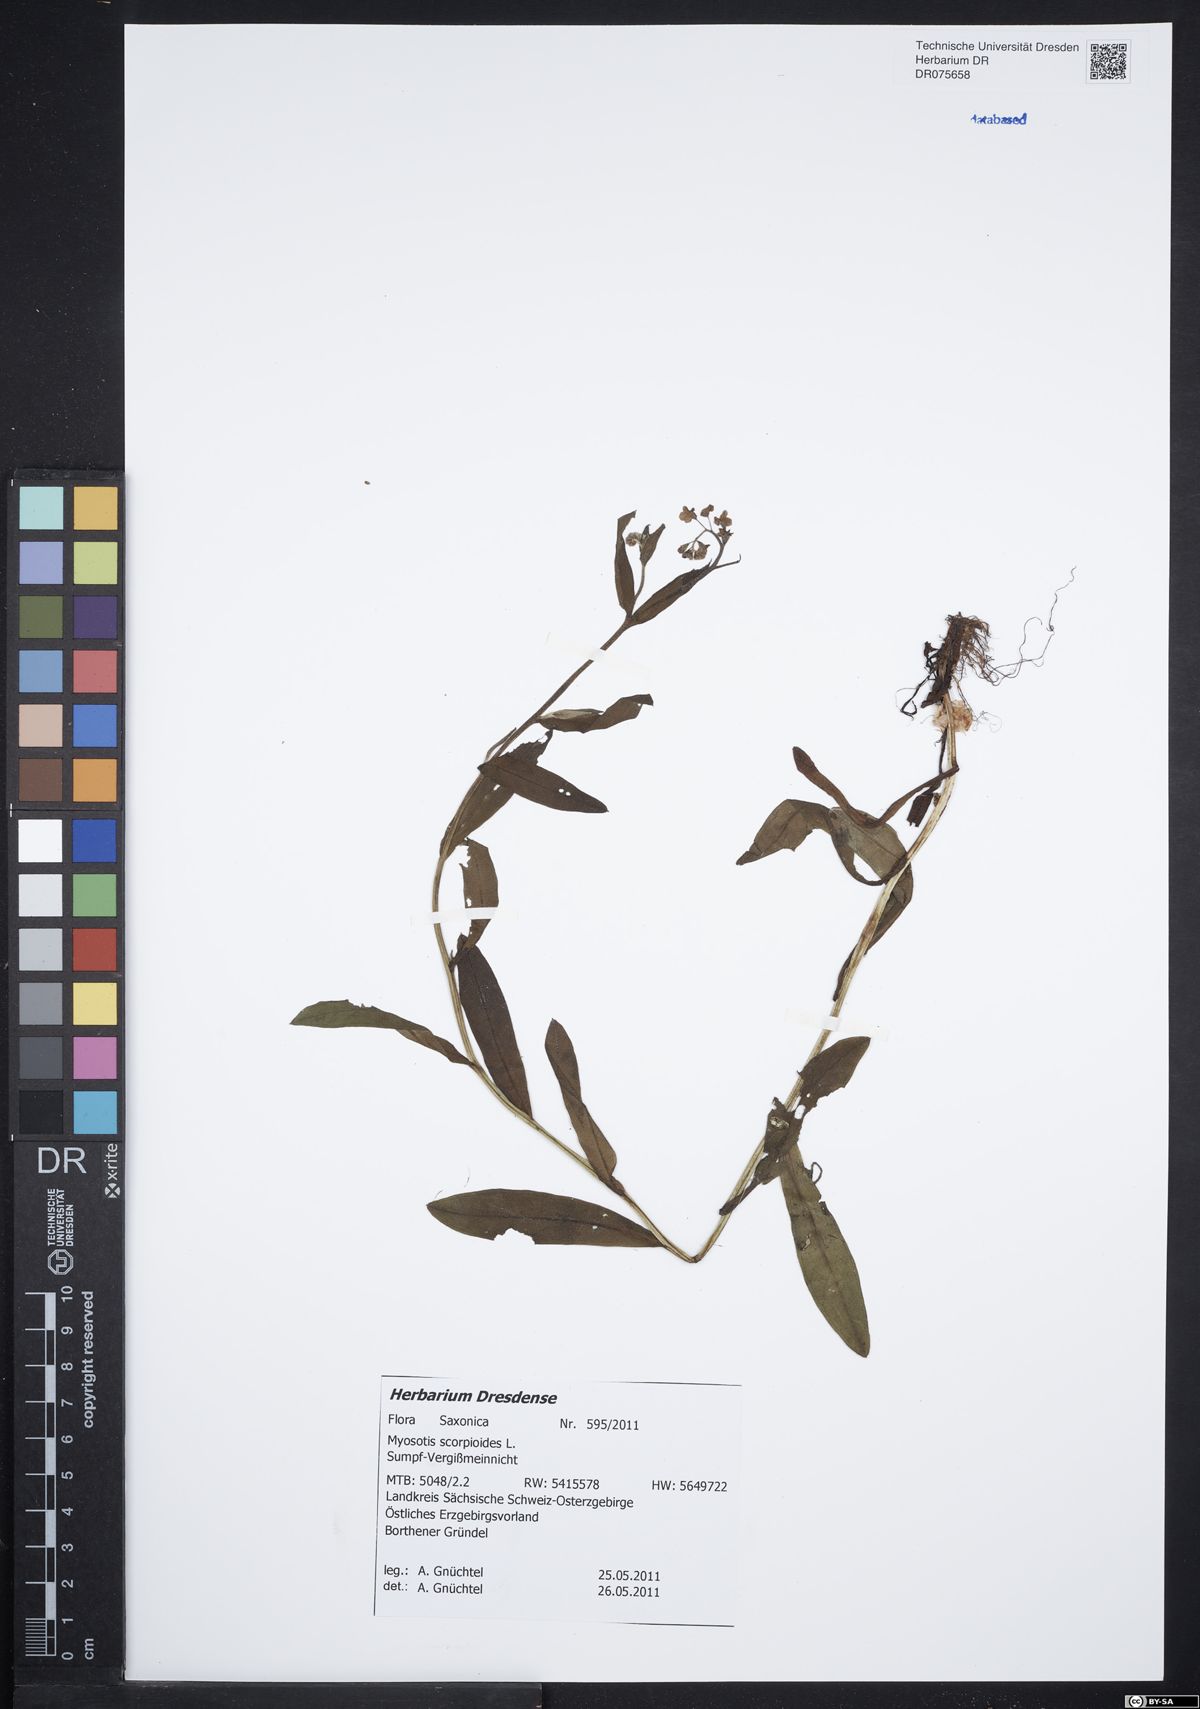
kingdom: Plantae
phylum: Tracheophyta
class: Magnoliopsida
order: Boraginales
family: Boraginaceae
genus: Myosotis
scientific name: Myosotis scorpioides
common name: Water forget-me-not
